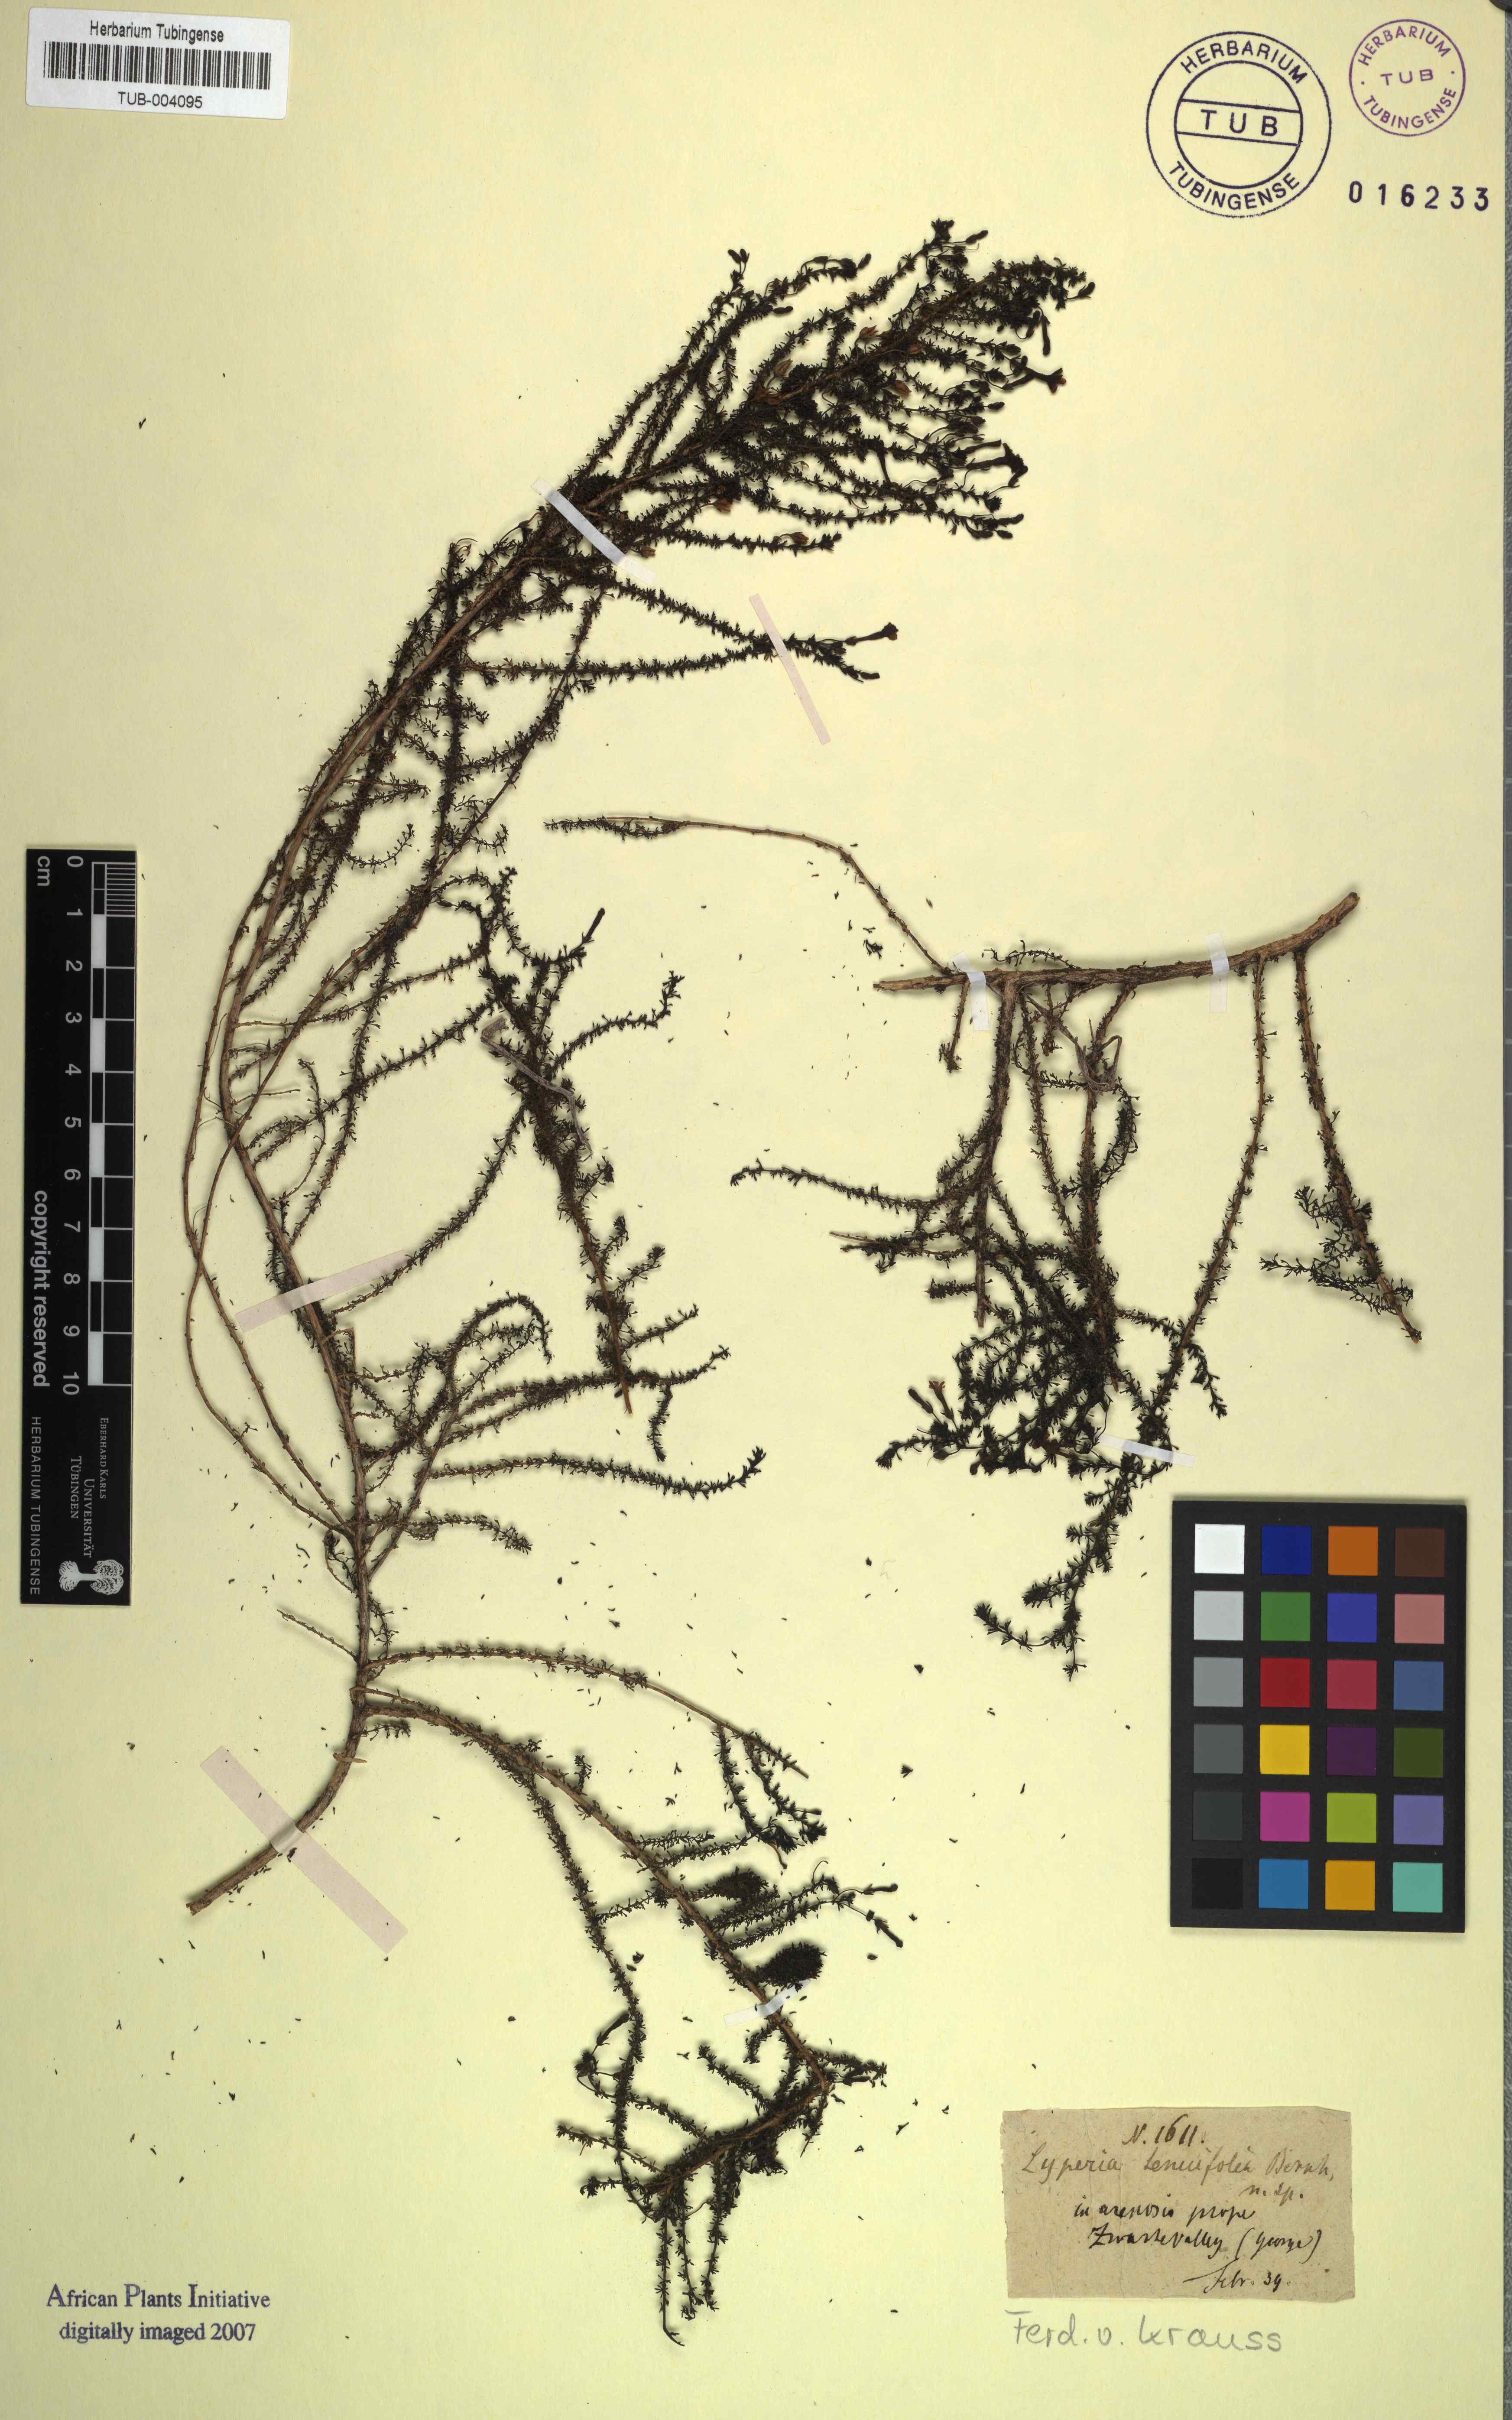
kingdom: Plantae
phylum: Tracheophyta
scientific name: Tracheophyta
